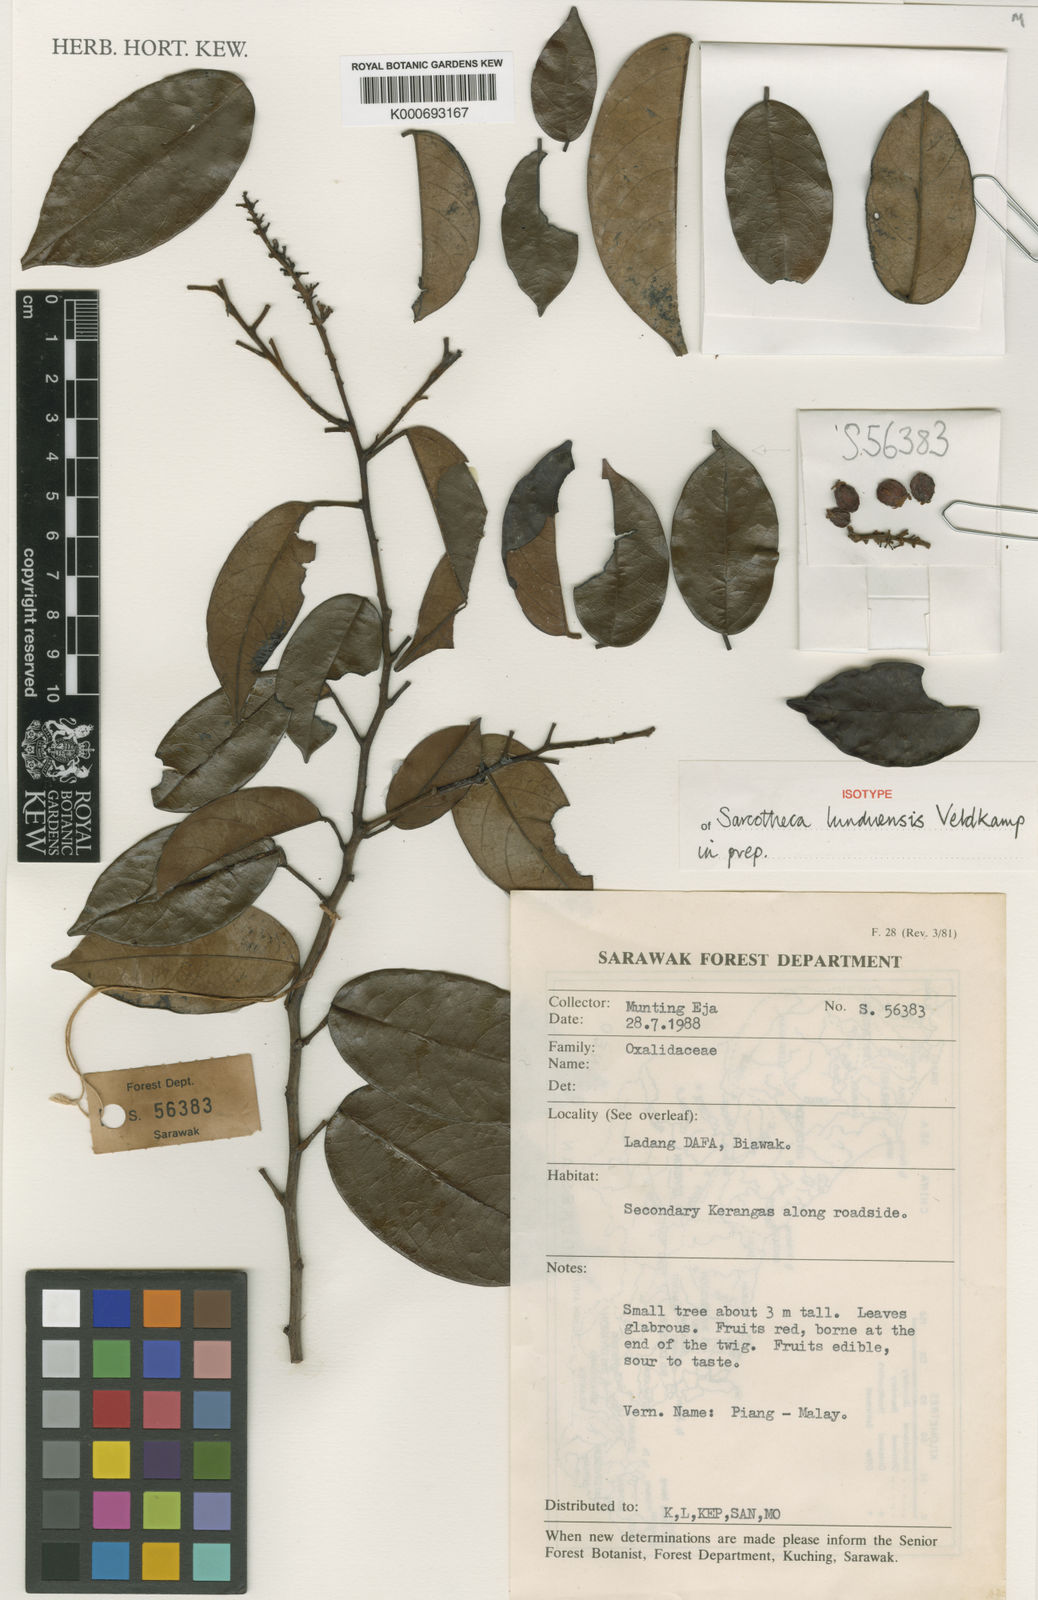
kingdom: Plantae
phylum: Tracheophyta
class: Magnoliopsida
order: Oxalidales
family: Oxalidaceae
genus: Sarcotheca
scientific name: Sarcotheca macrophylla
